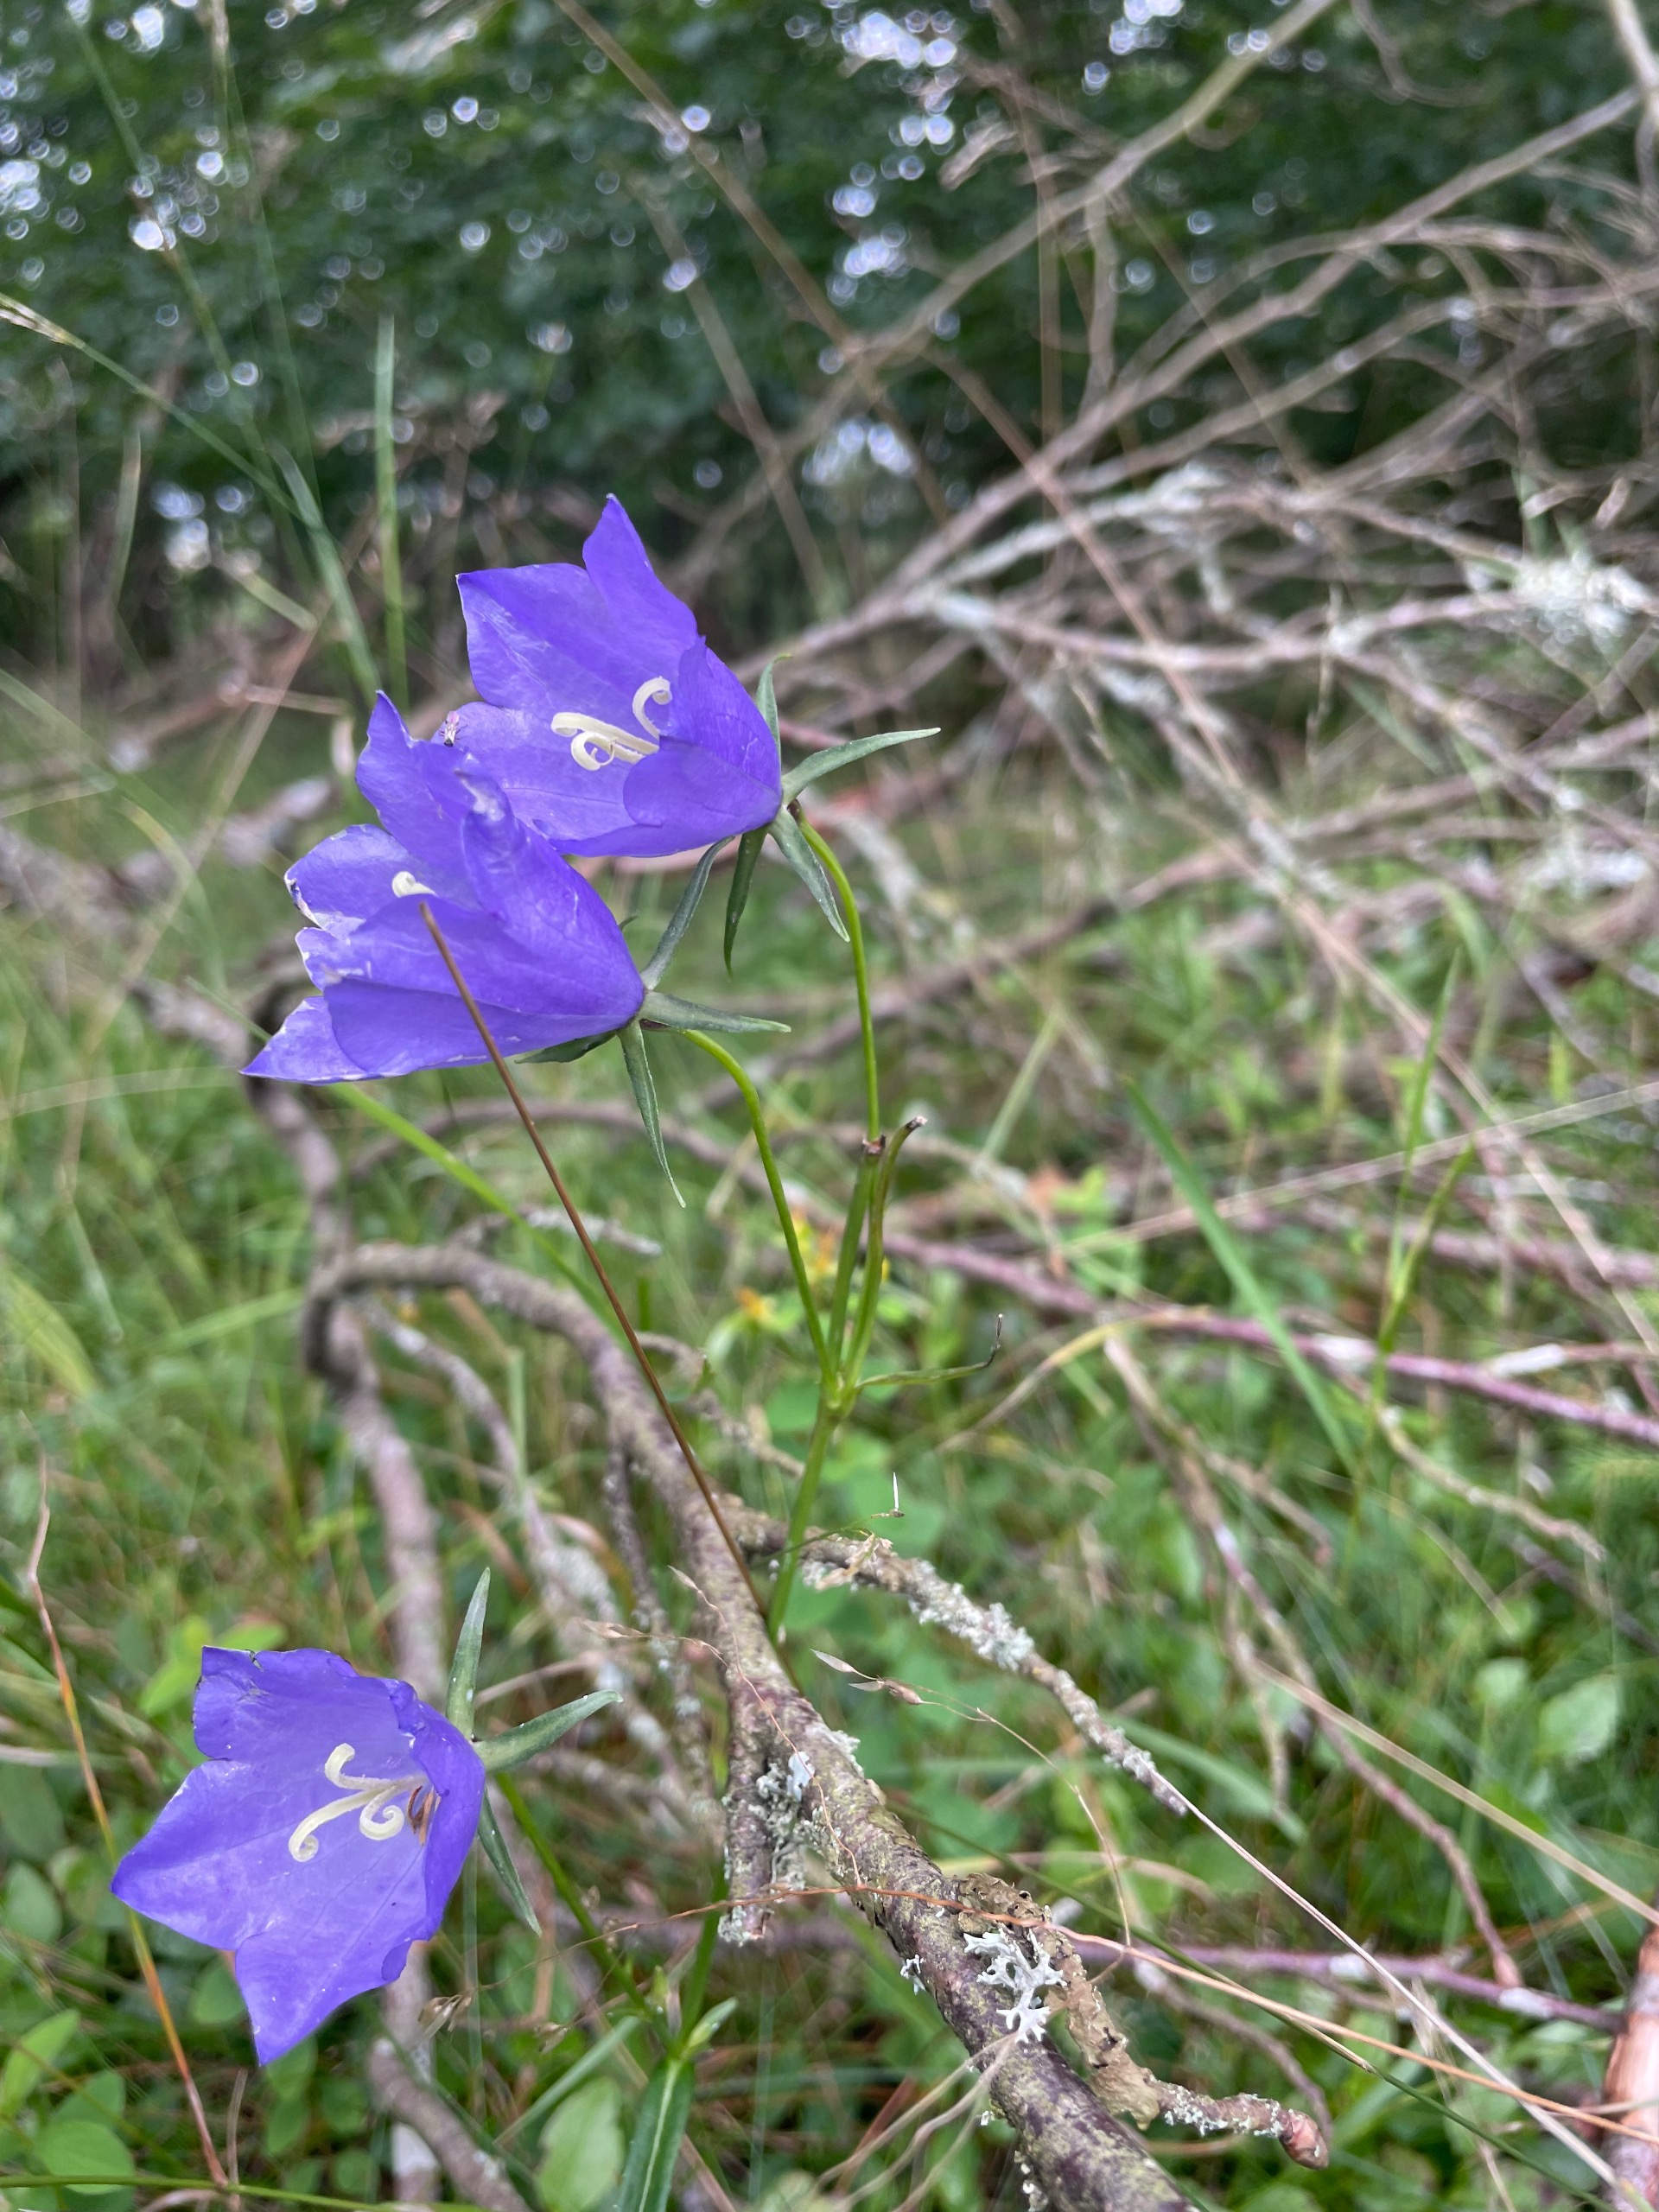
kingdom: Plantae
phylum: Tracheophyta
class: Magnoliopsida
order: Asterales
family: Campanulaceae
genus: Campanula
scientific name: Campanula persicifolia
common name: Smalbladet klokke
